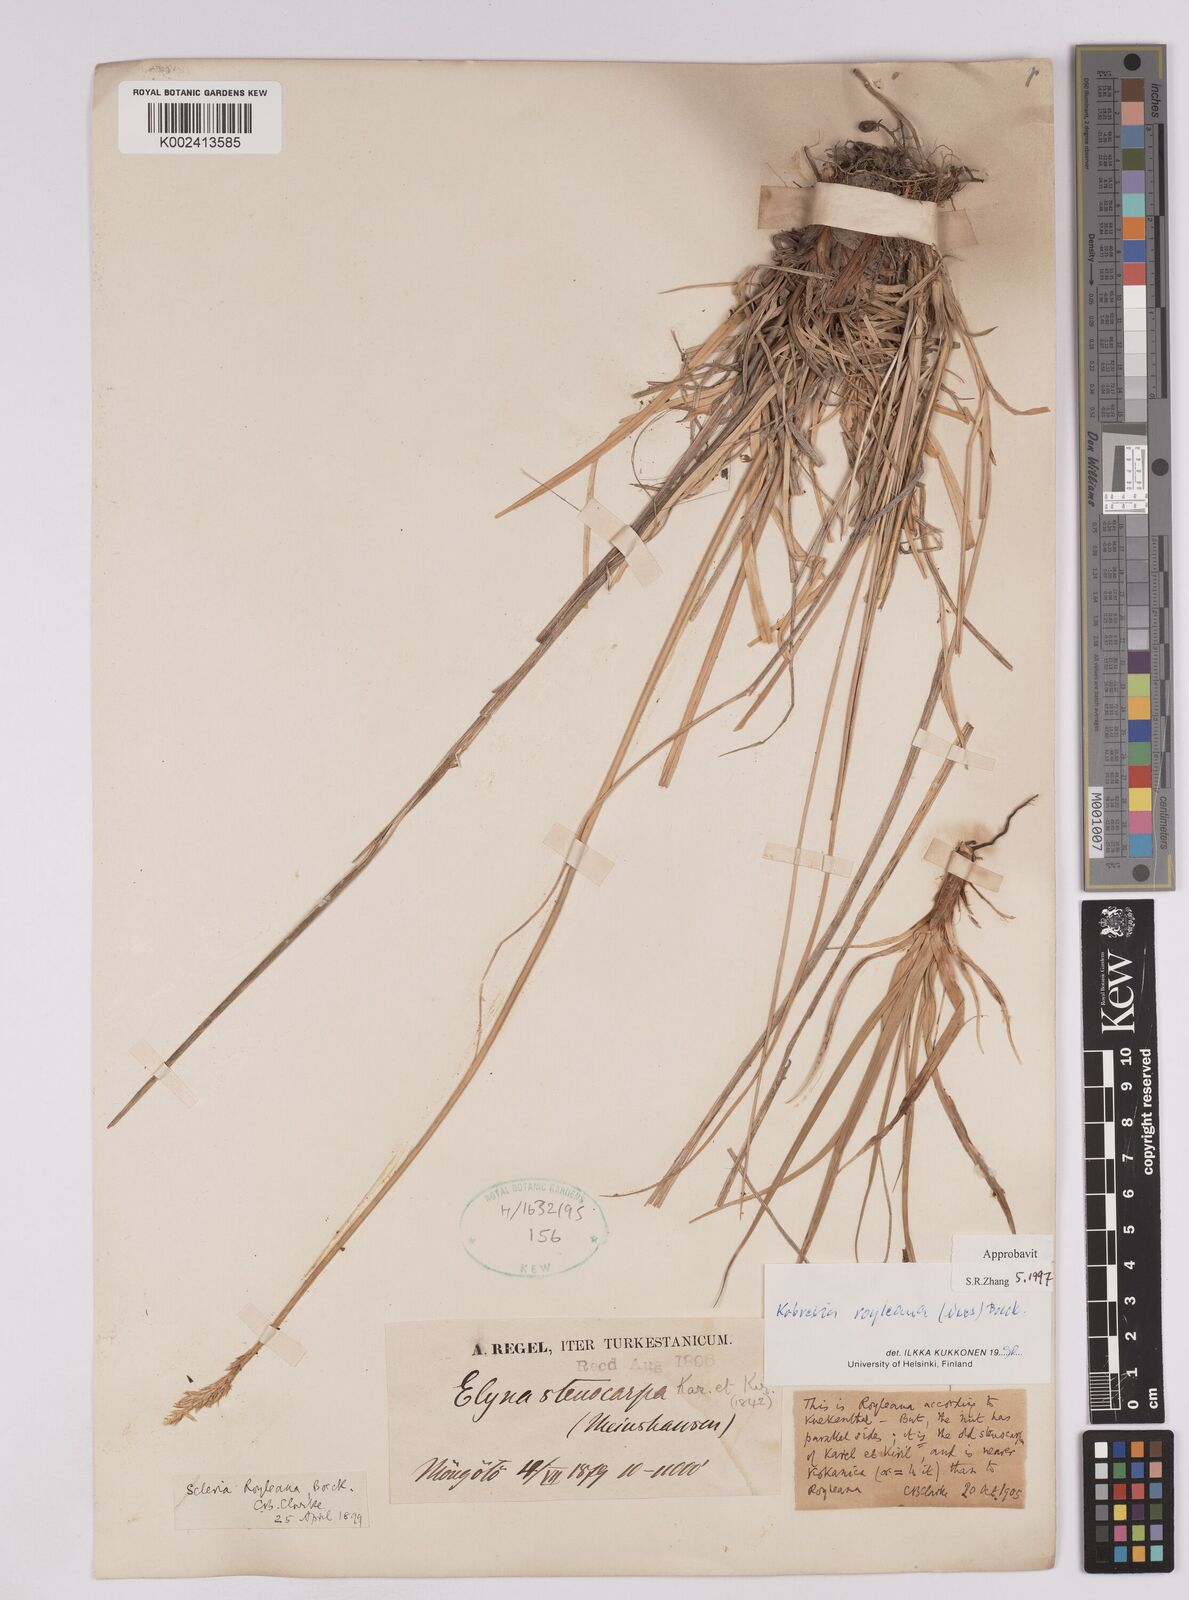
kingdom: Plantae
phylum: Tracheophyta
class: Liliopsida
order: Poales
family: Cyperaceae
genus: Carex
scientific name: Carex kokanica
